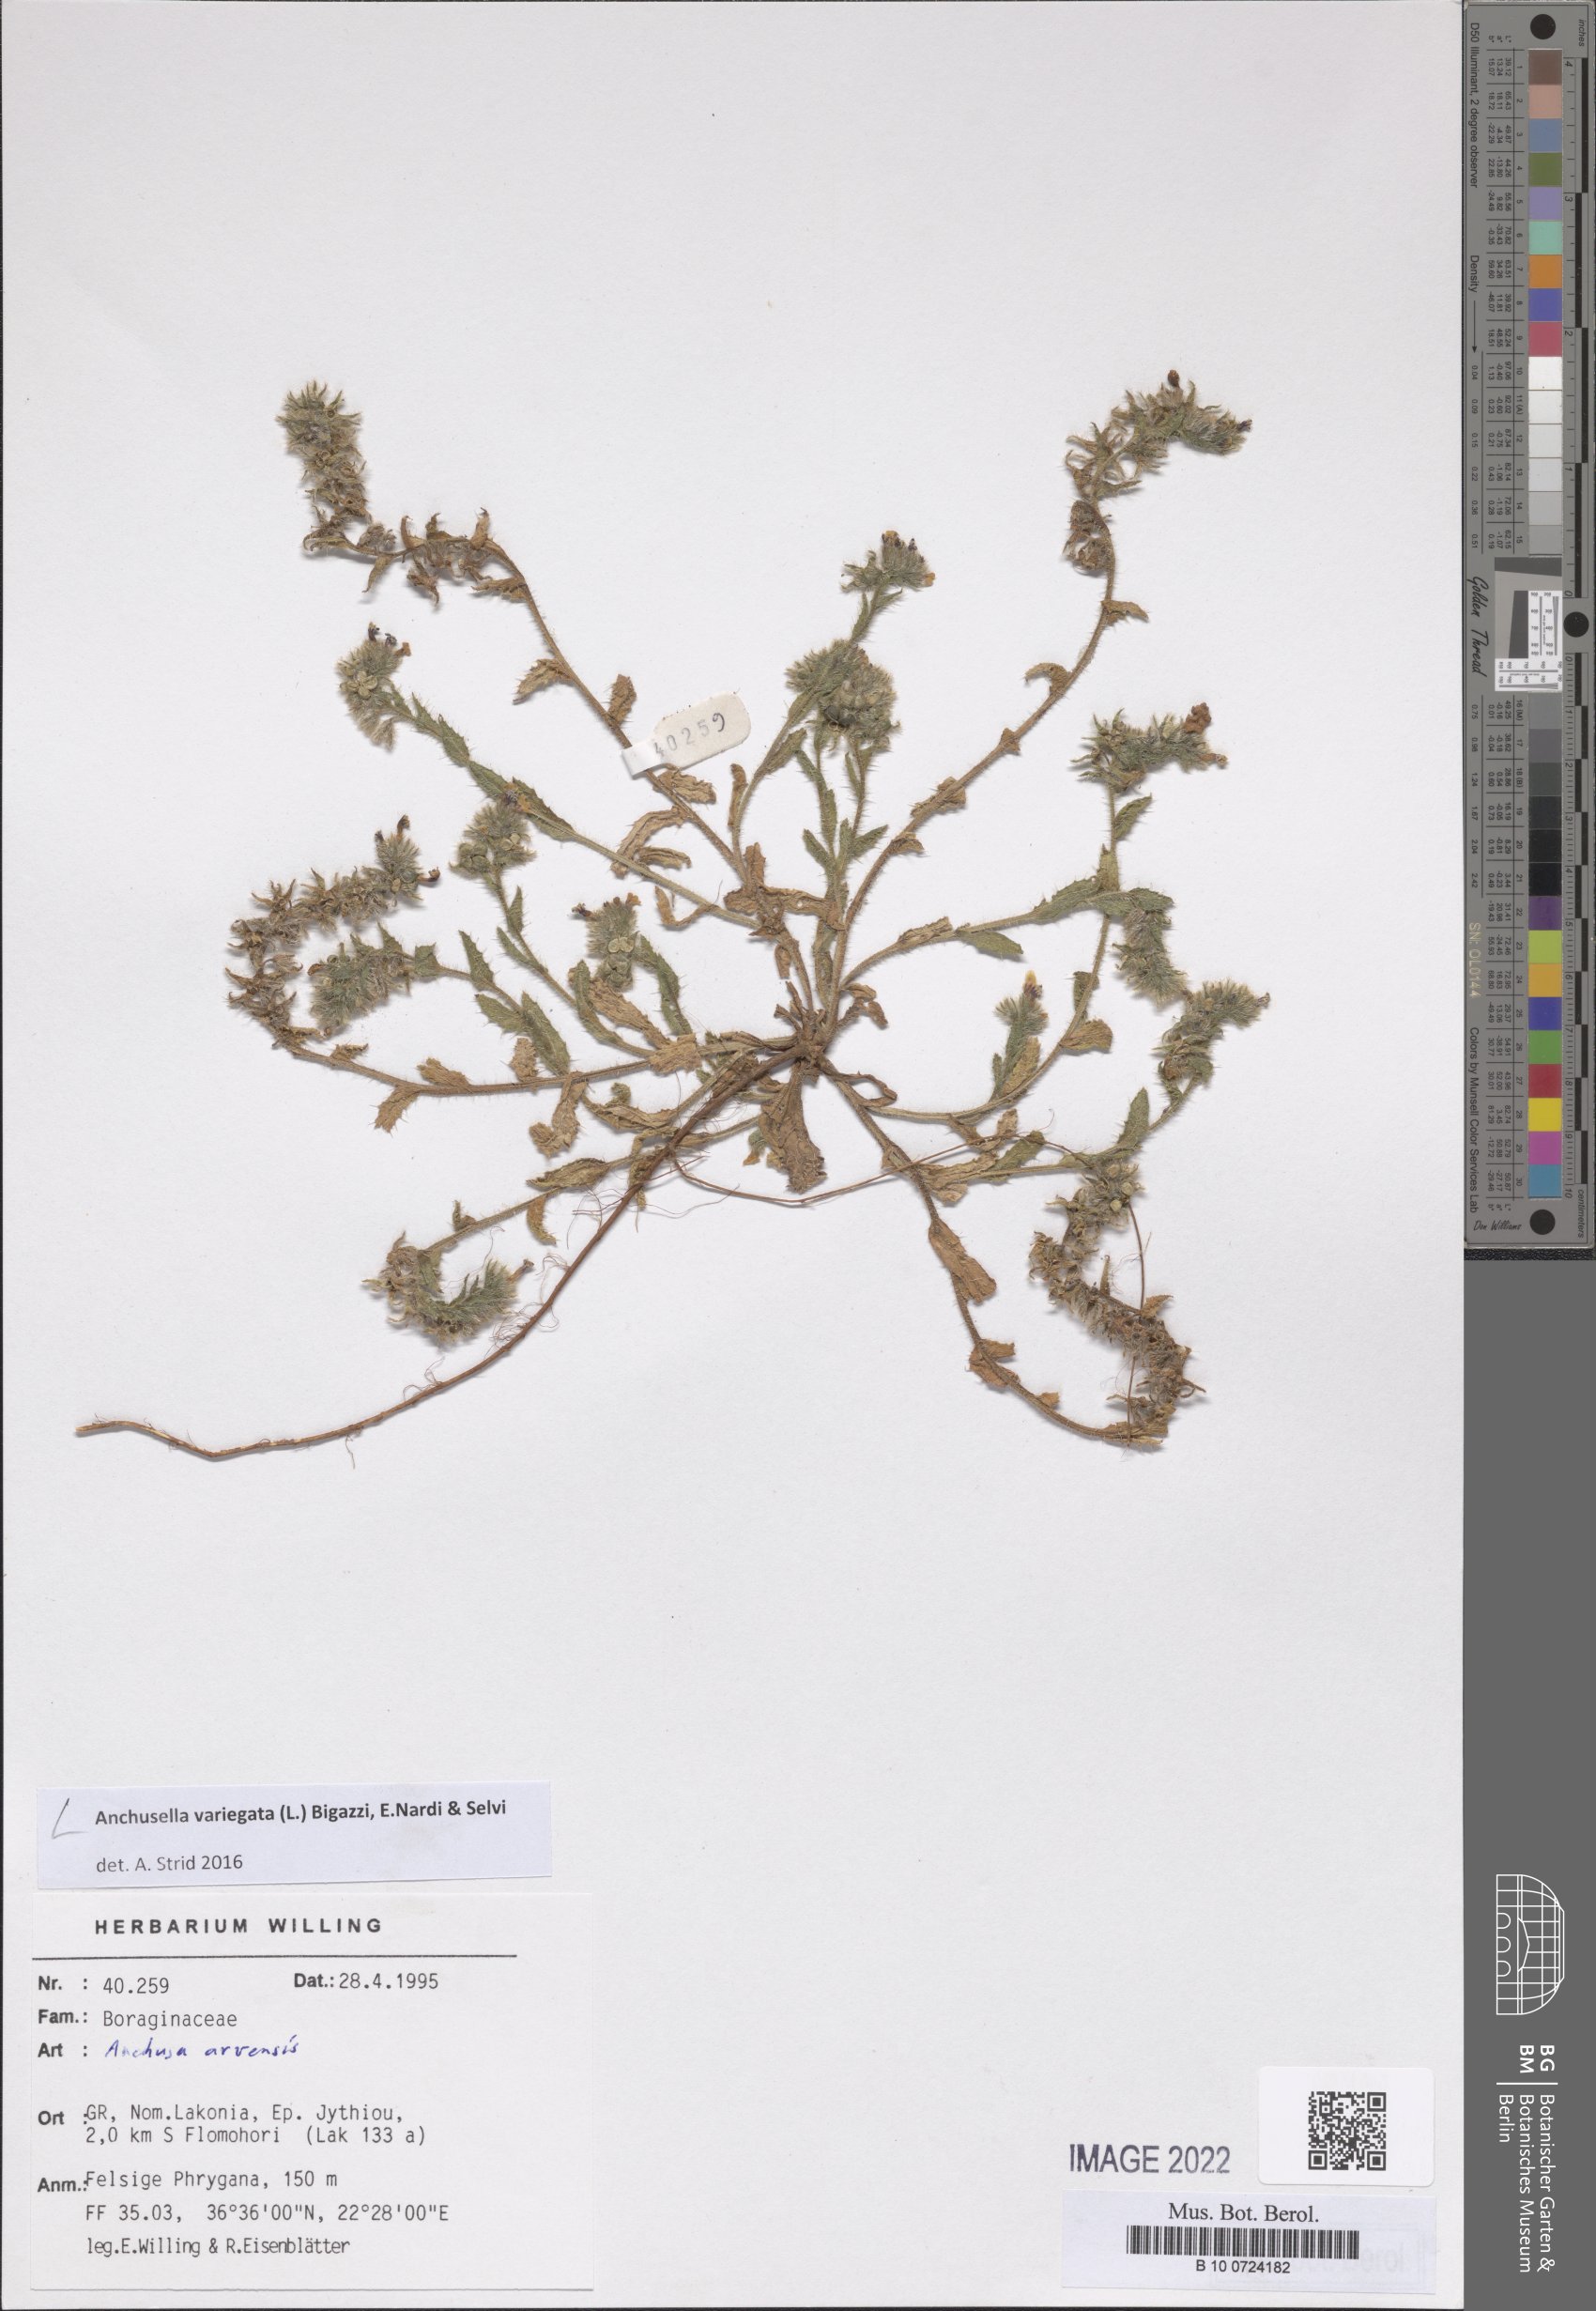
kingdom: Plantae
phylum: Tracheophyta
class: Magnoliopsida
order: Boraginales
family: Boraginaceae
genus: Anchusella
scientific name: Anchusella variegata
